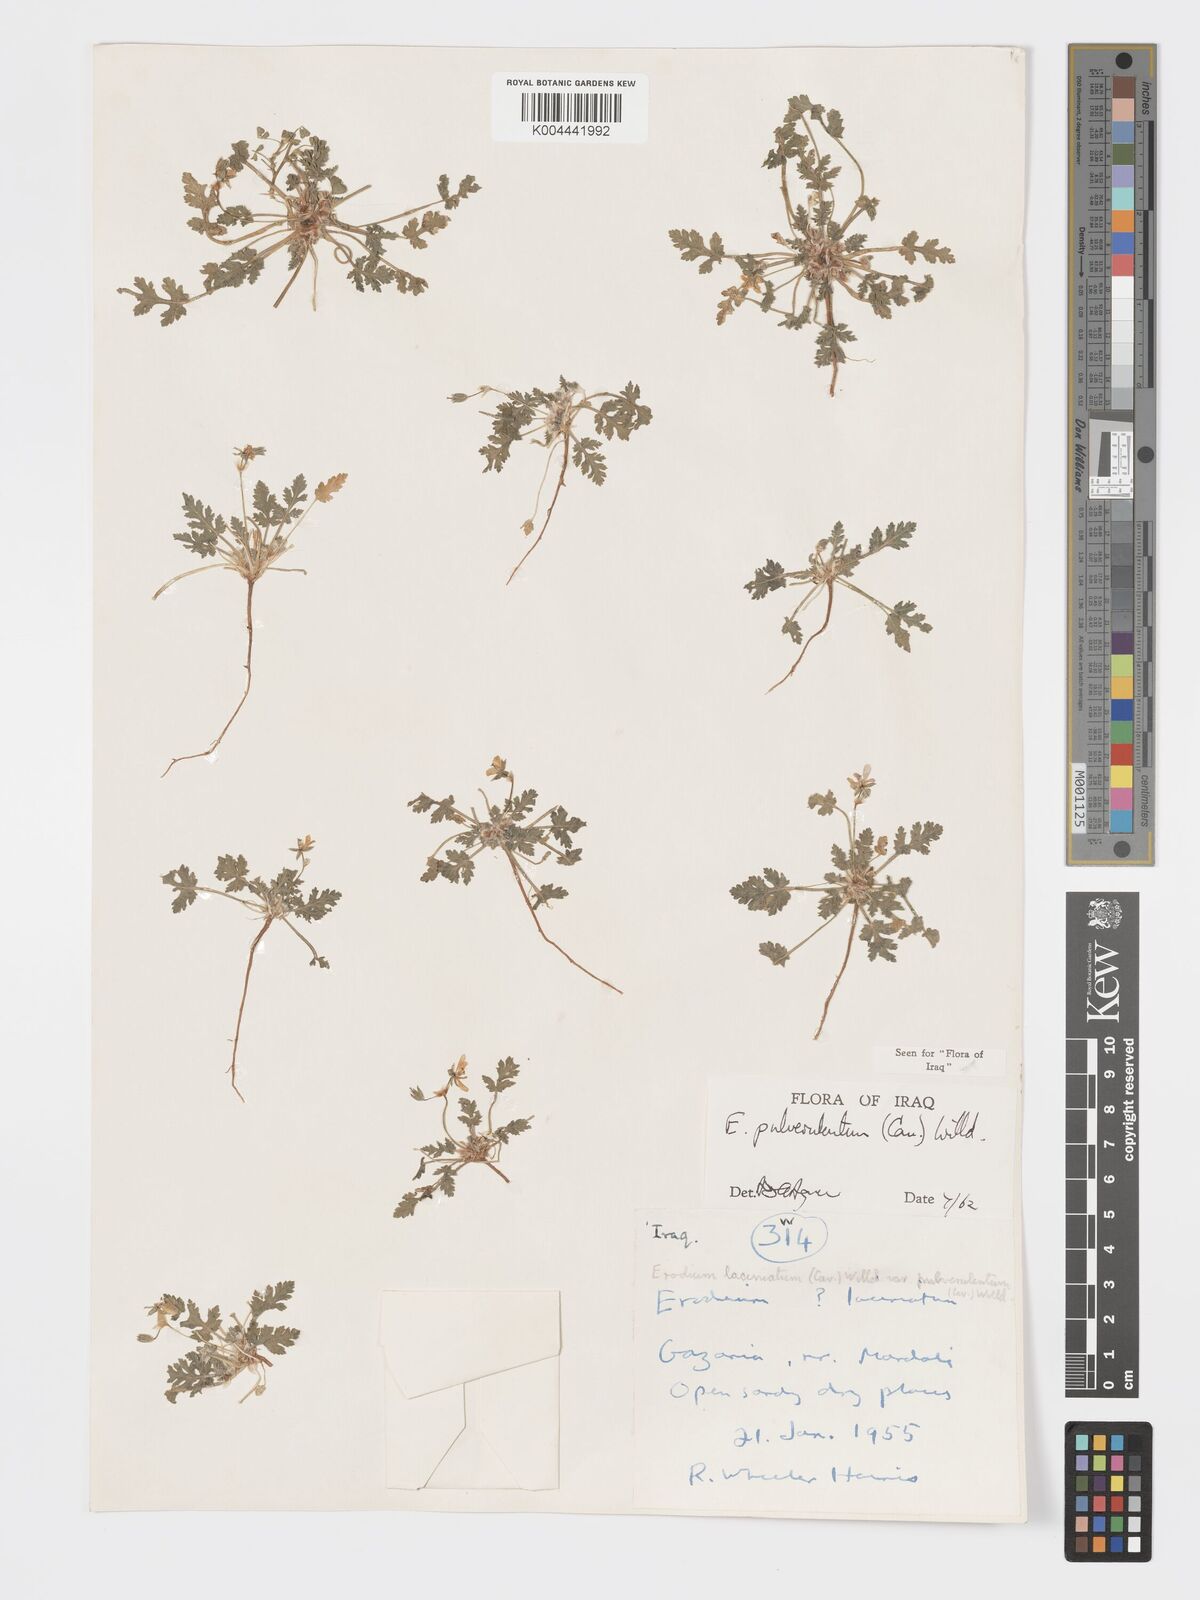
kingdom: Plantae
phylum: Tracheophyta
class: Magnoliopsida
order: Geraniales
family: Geraniaceae
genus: Erodium
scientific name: Erodium laciniatum
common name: Cutleaf stork's bill
